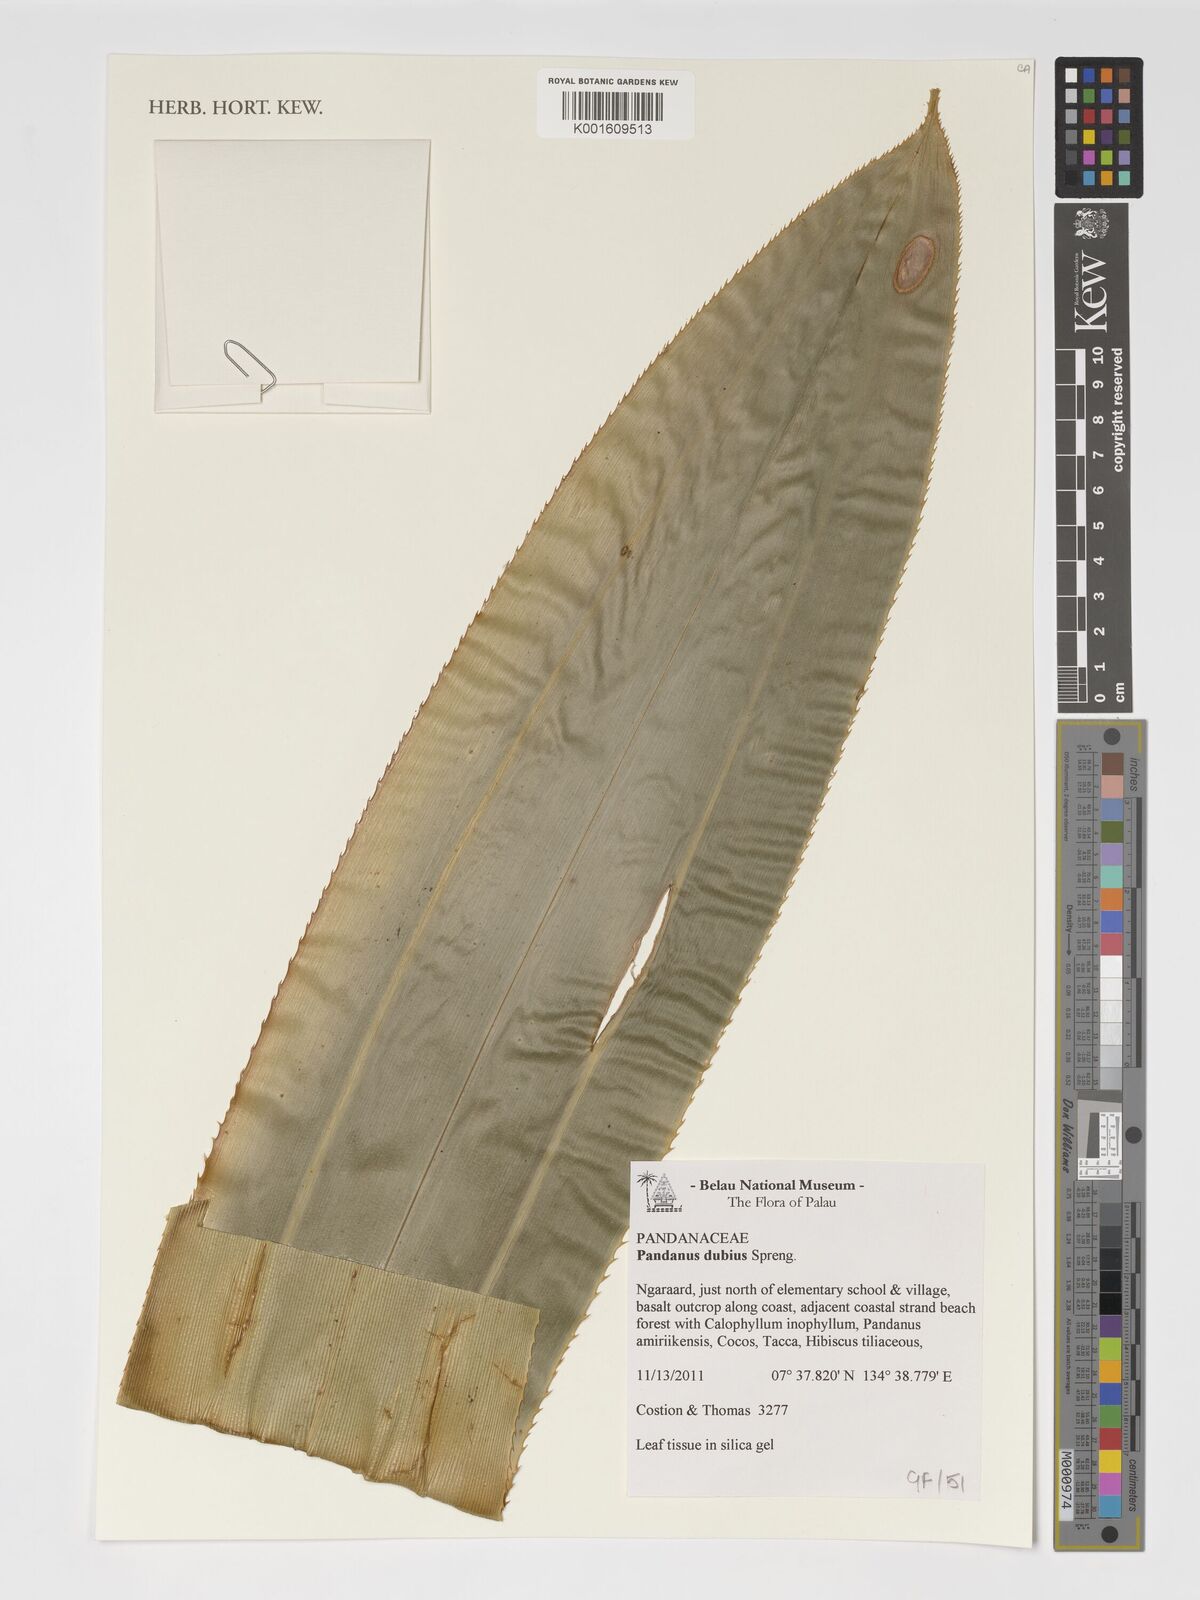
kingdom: Plantae
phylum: Tracheophyta
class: Liliopsida
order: Pandanales
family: Pandanaceae
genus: Pandanus
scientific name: Pandanus dubius
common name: Knob-fruited screwpine
